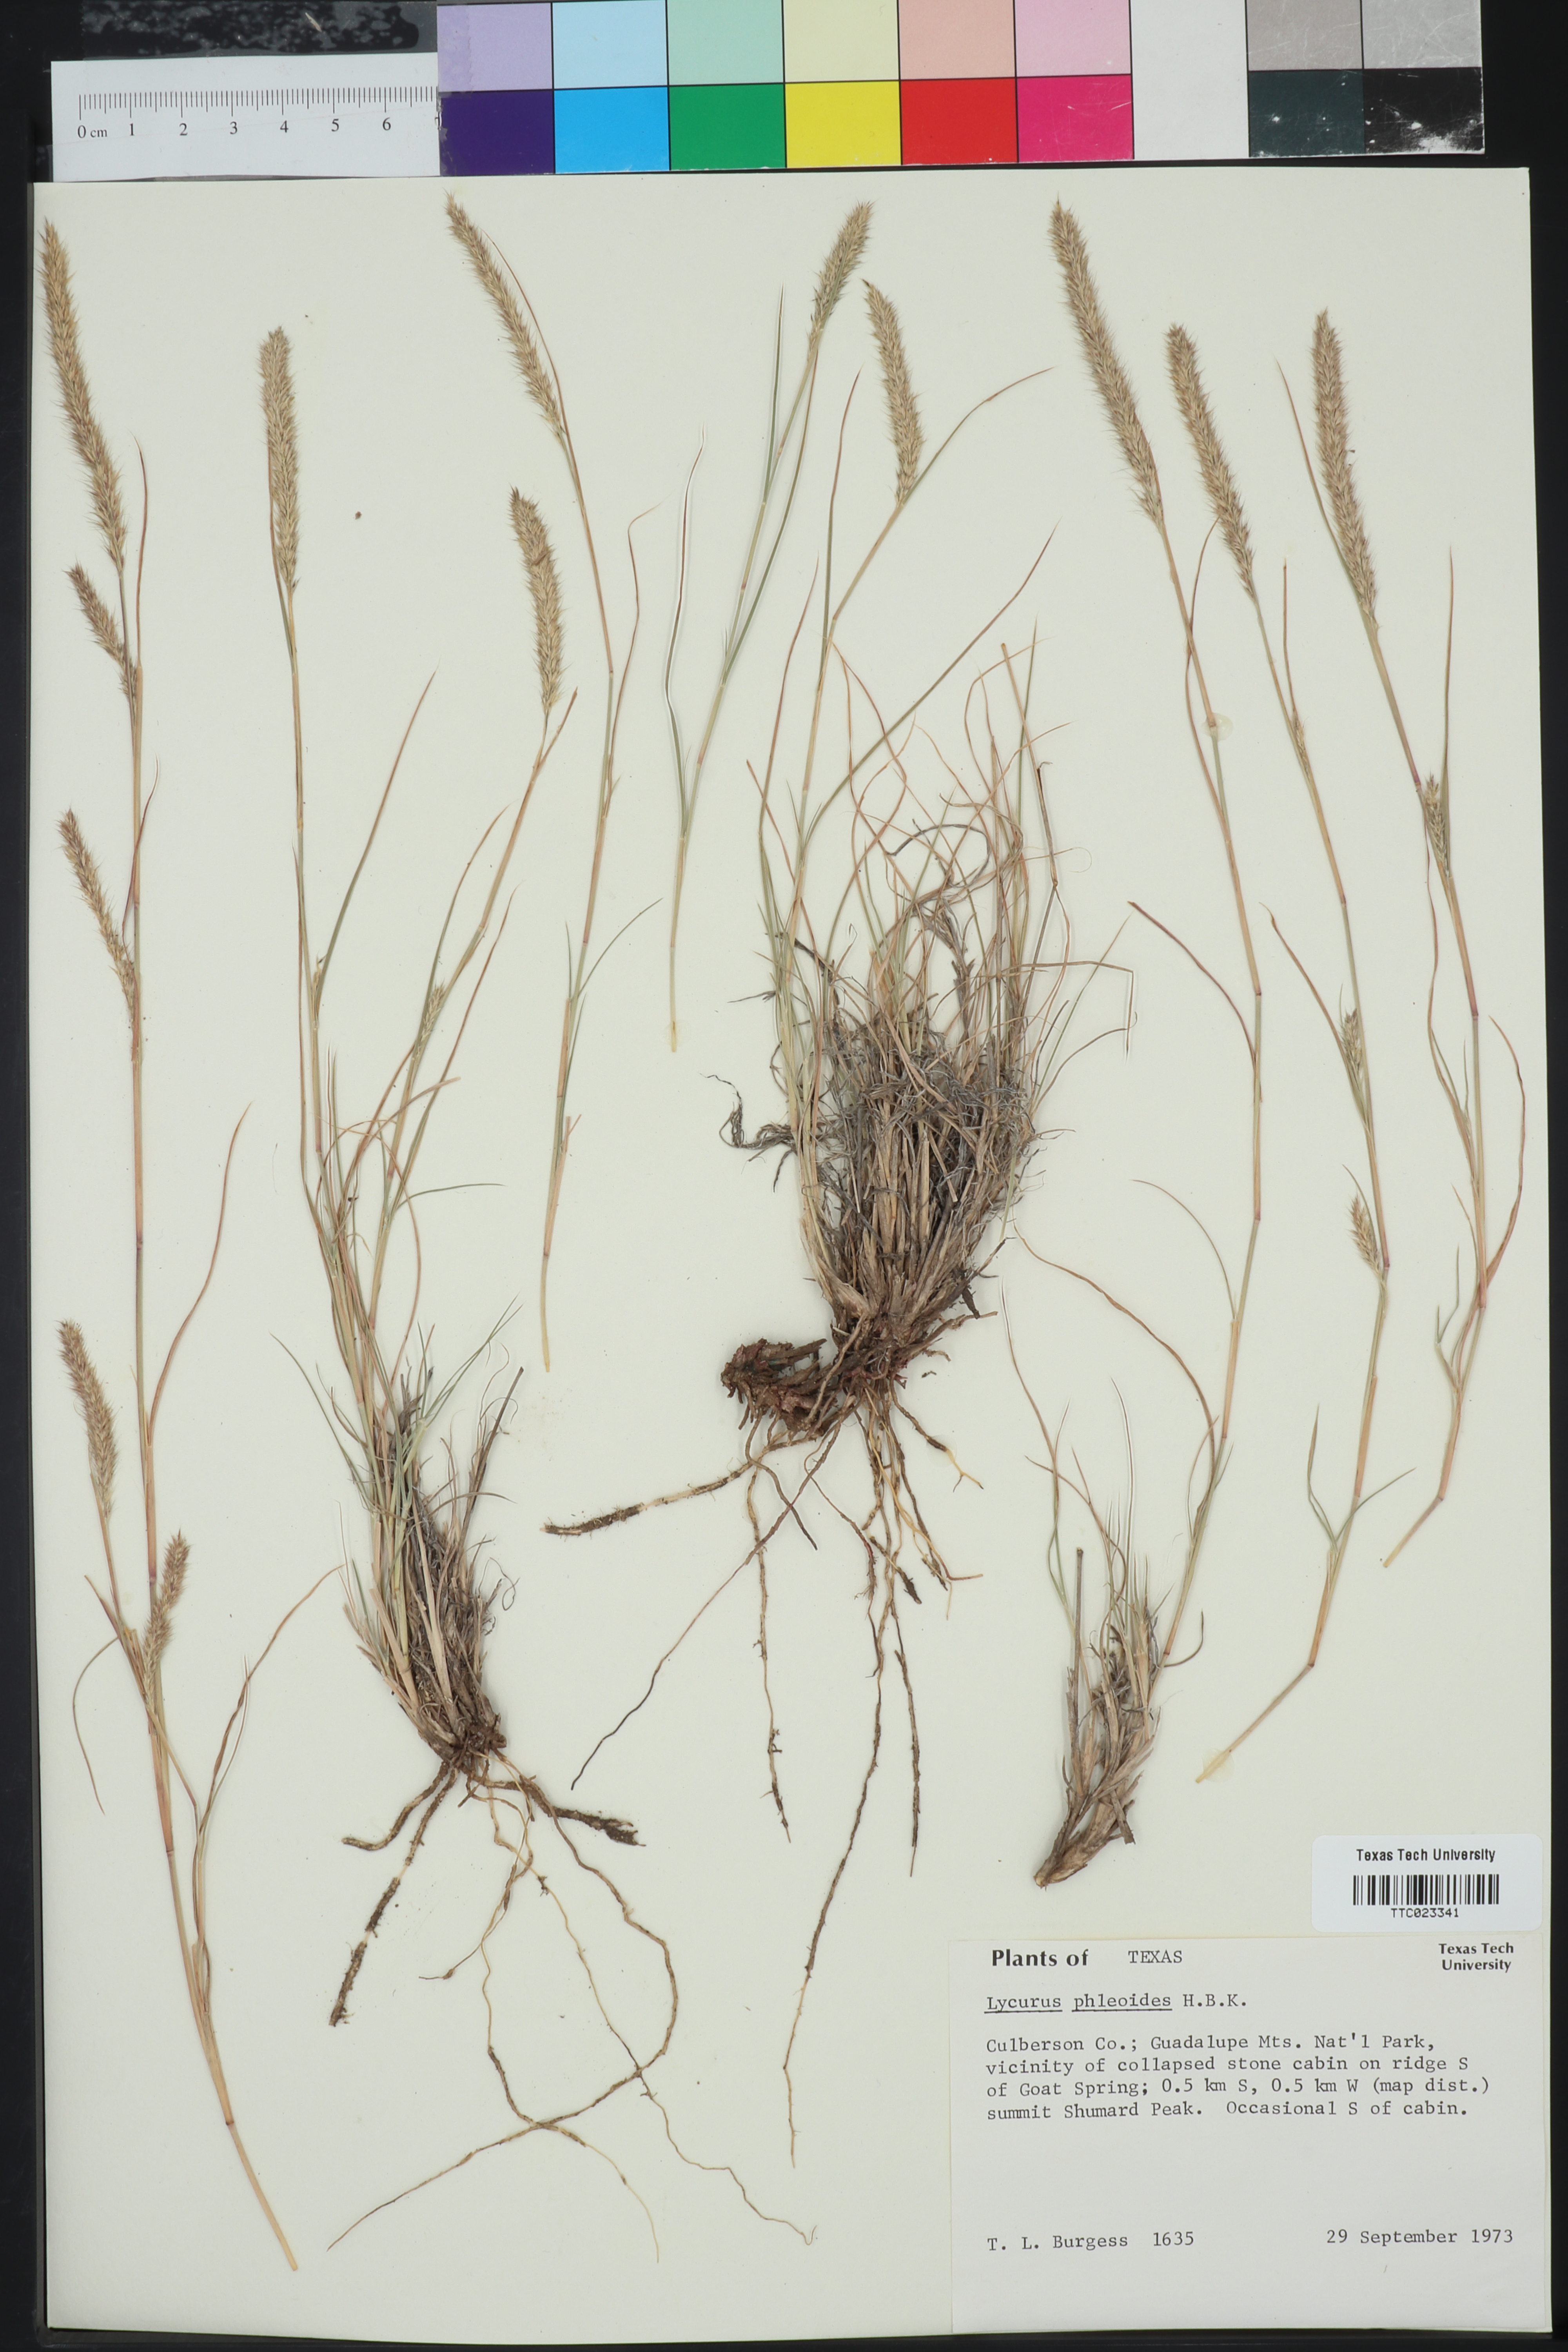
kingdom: Plantae
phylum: Tracheophyta
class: Liliopsida
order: Poales
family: Poaceae
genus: Muhlenbergia
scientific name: Muhlenbergia phleoides
